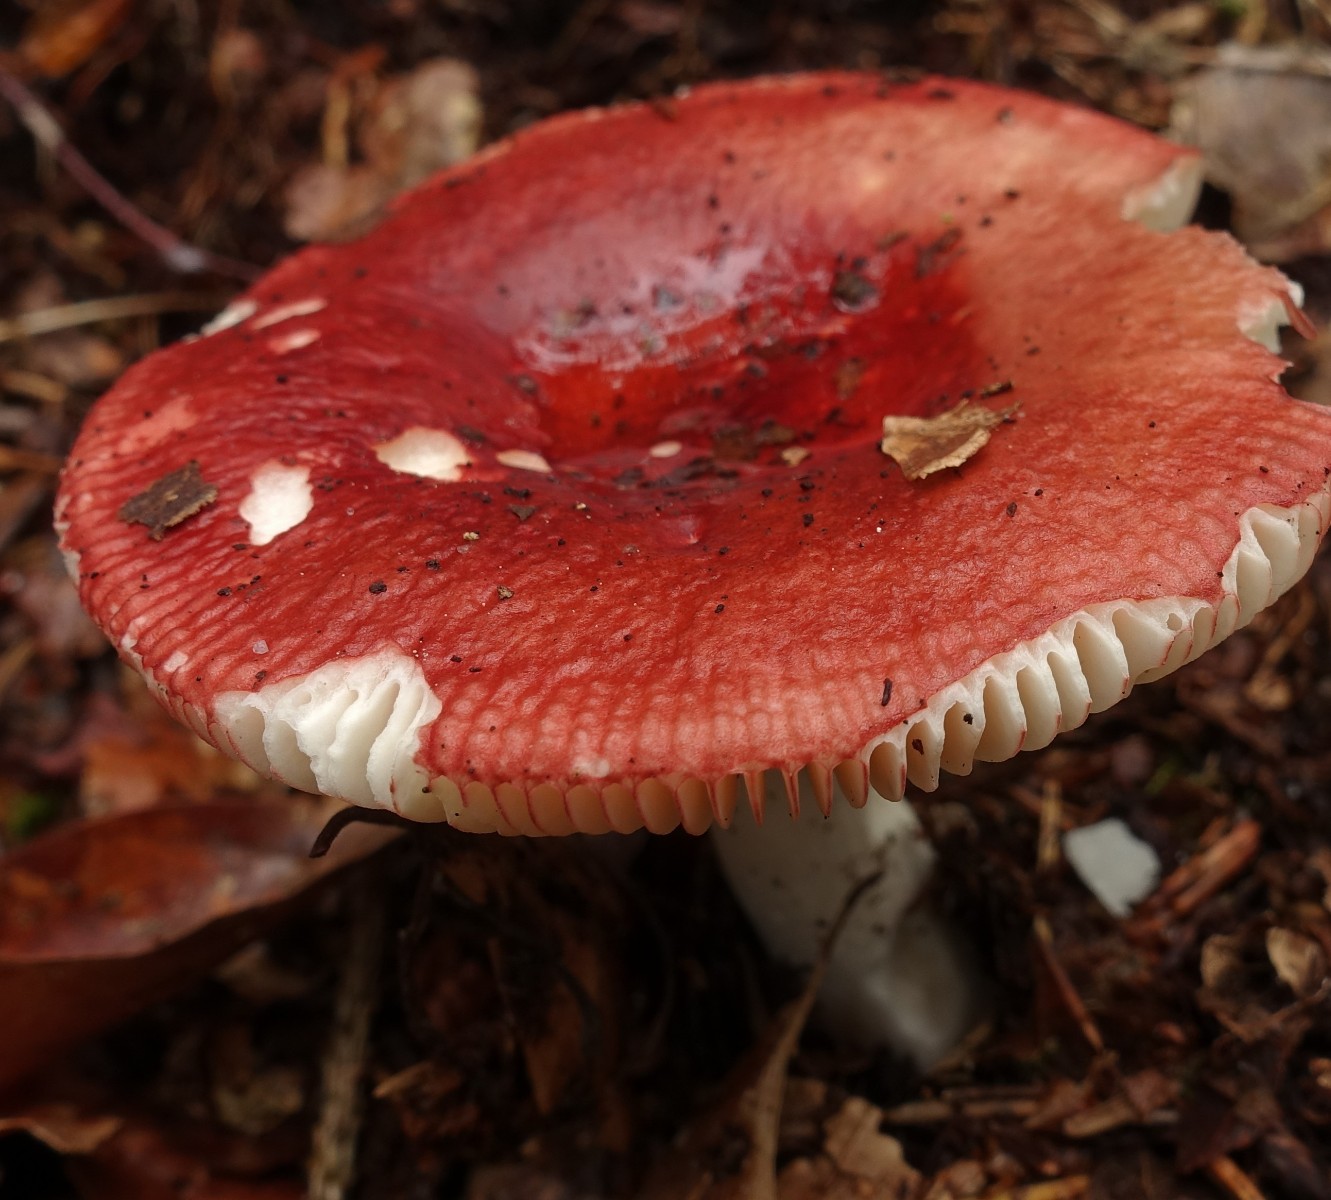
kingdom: Fungi
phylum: Basidiomycota
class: Agaricomycetes
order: Russulales
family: Russulaceae
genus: Russula
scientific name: Russula velenovskyi
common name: orangerød skørhat
